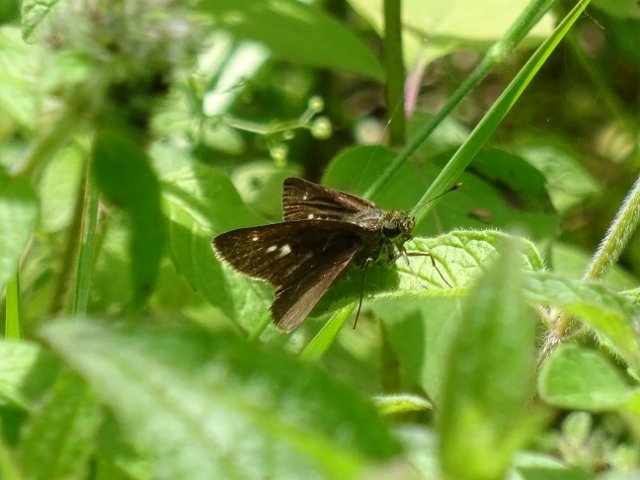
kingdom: Animalia
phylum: Arthropoda
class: Insecta
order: Lepidoptera
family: Hesperiidae
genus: Polites
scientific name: Polites egeremet
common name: Northern Broken-Dash
